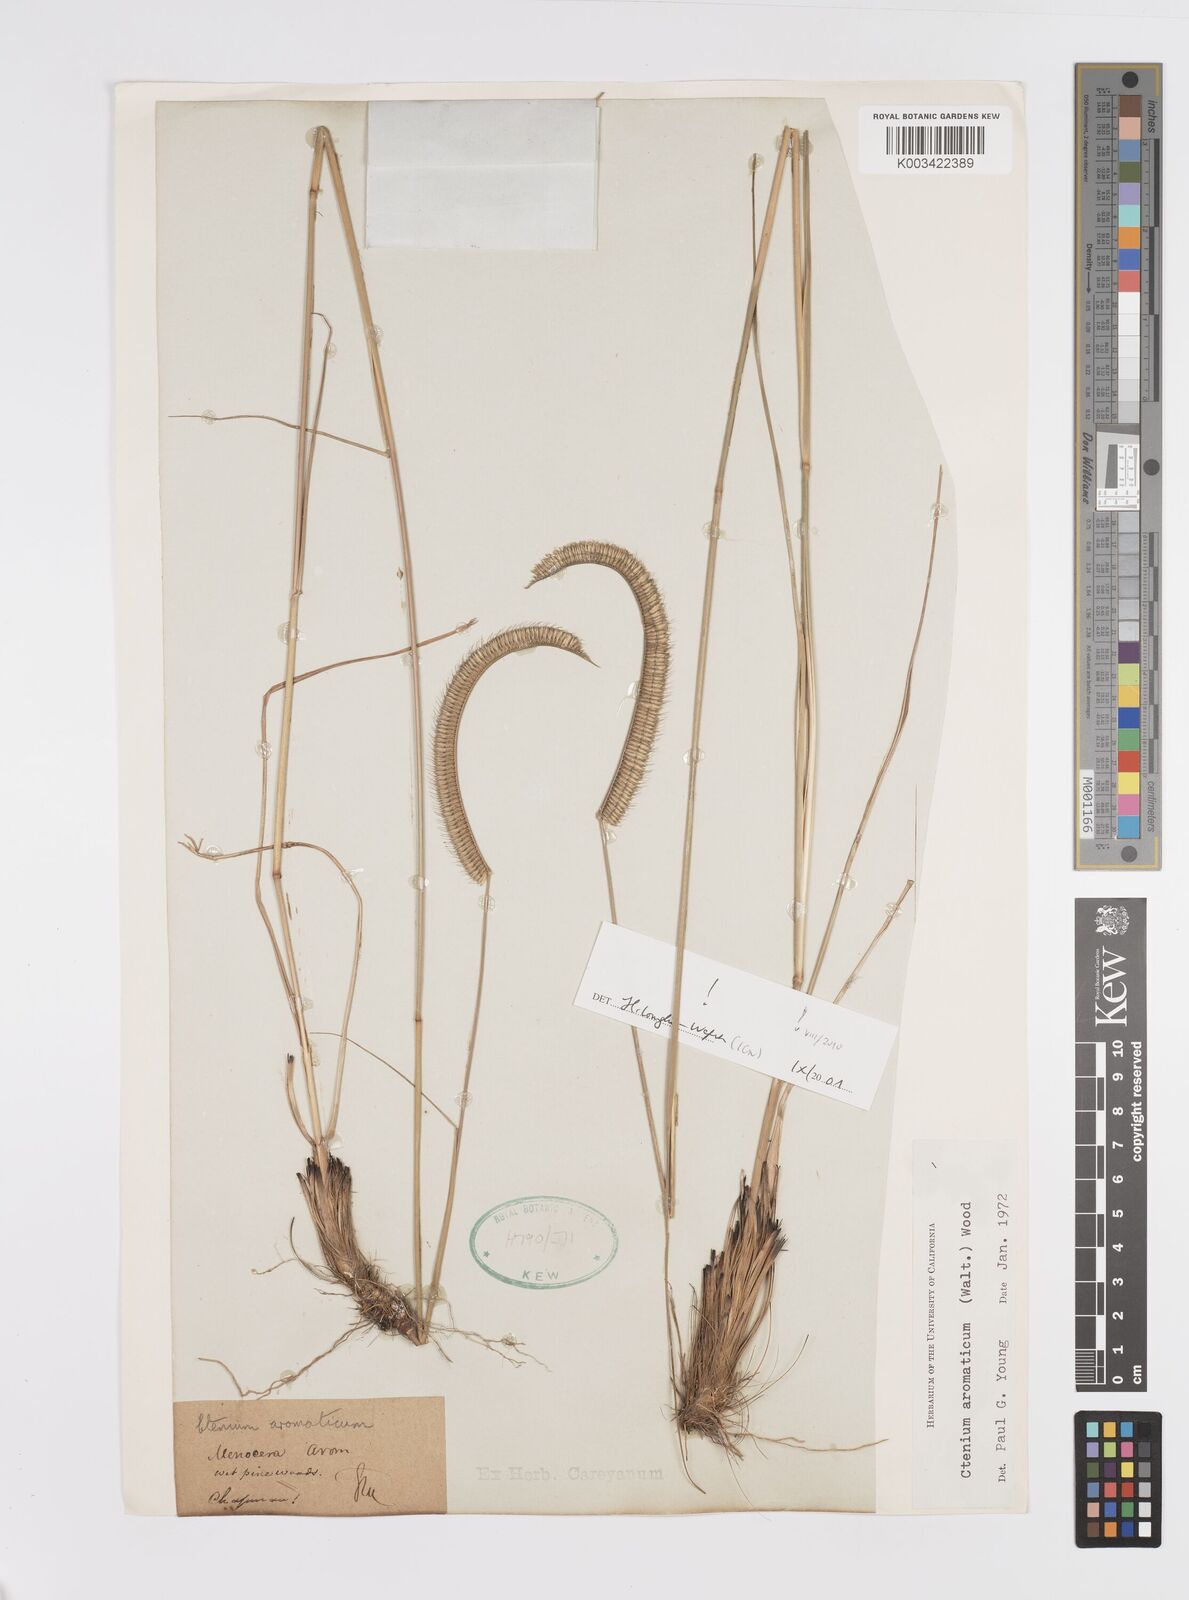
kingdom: Plantae
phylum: Tracheophyta
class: Liliopsida
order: Poales
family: Poaceae
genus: Ctenium
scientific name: Ctenium aromaticum
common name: Toothache grass
